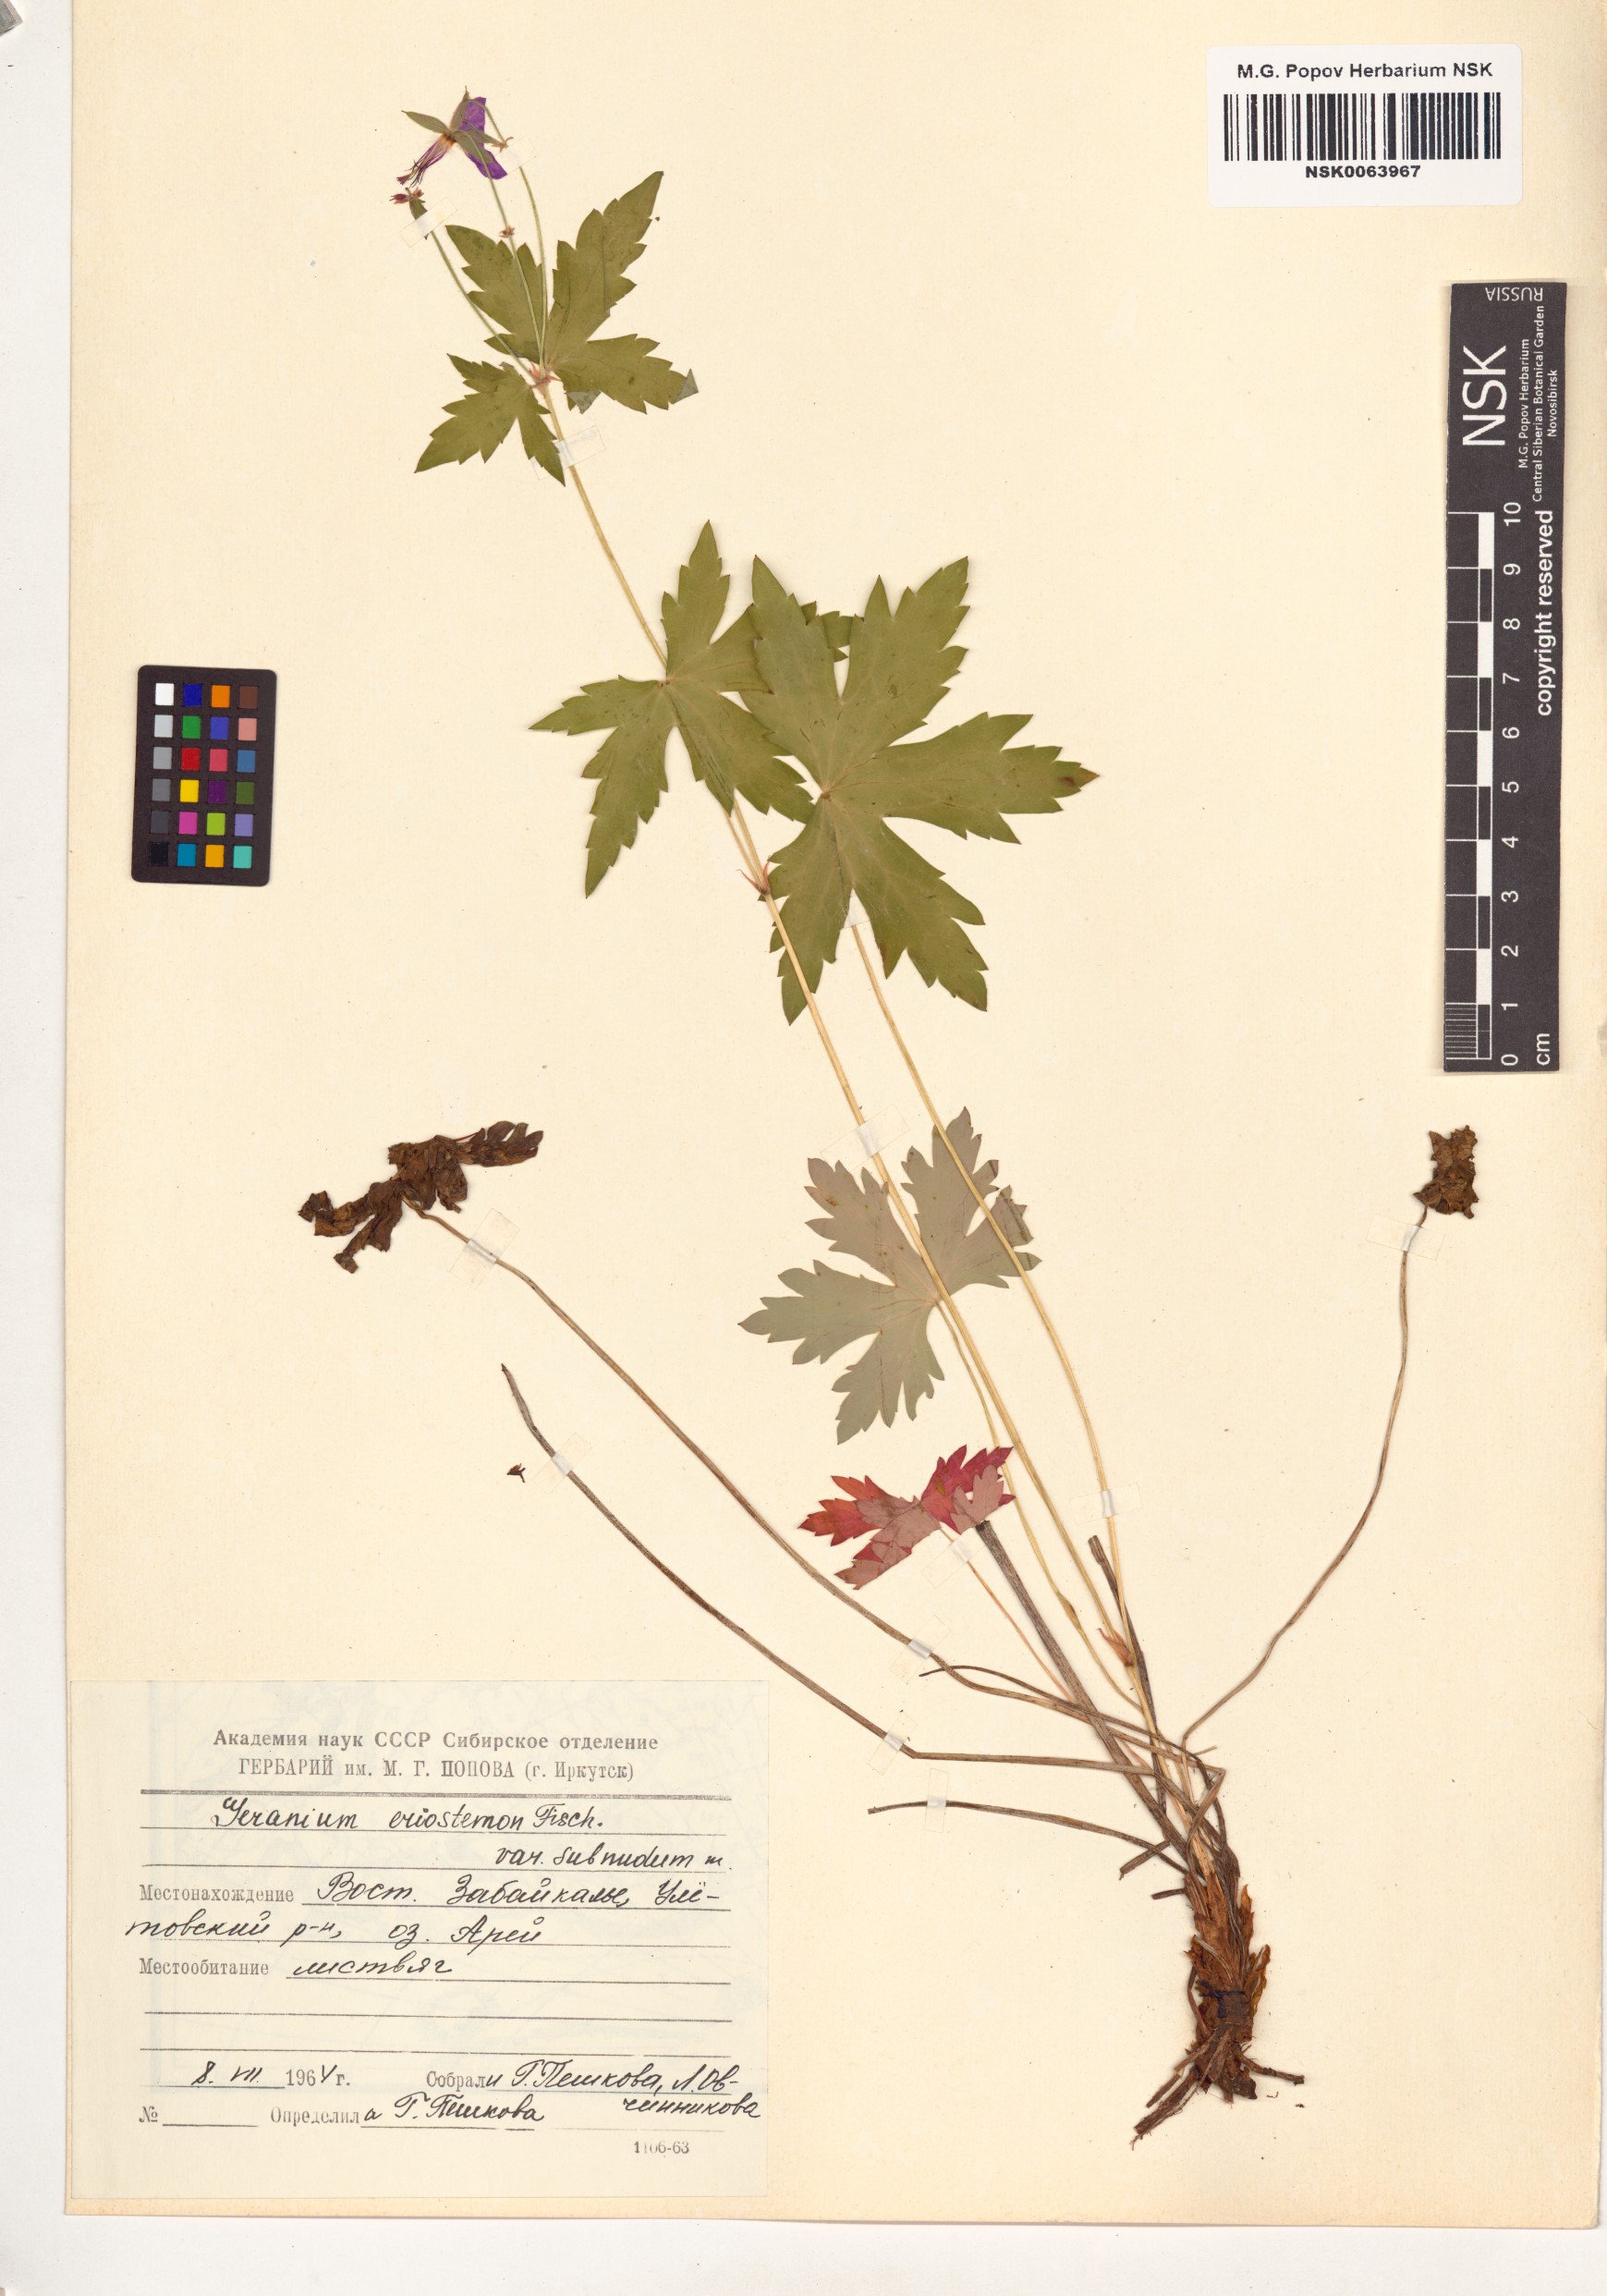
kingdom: Plantae
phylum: Tracheophyta
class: Magnoliopsida
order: Geraniales
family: Geraniaceae
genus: Geranium
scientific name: Geranium platyanthum
